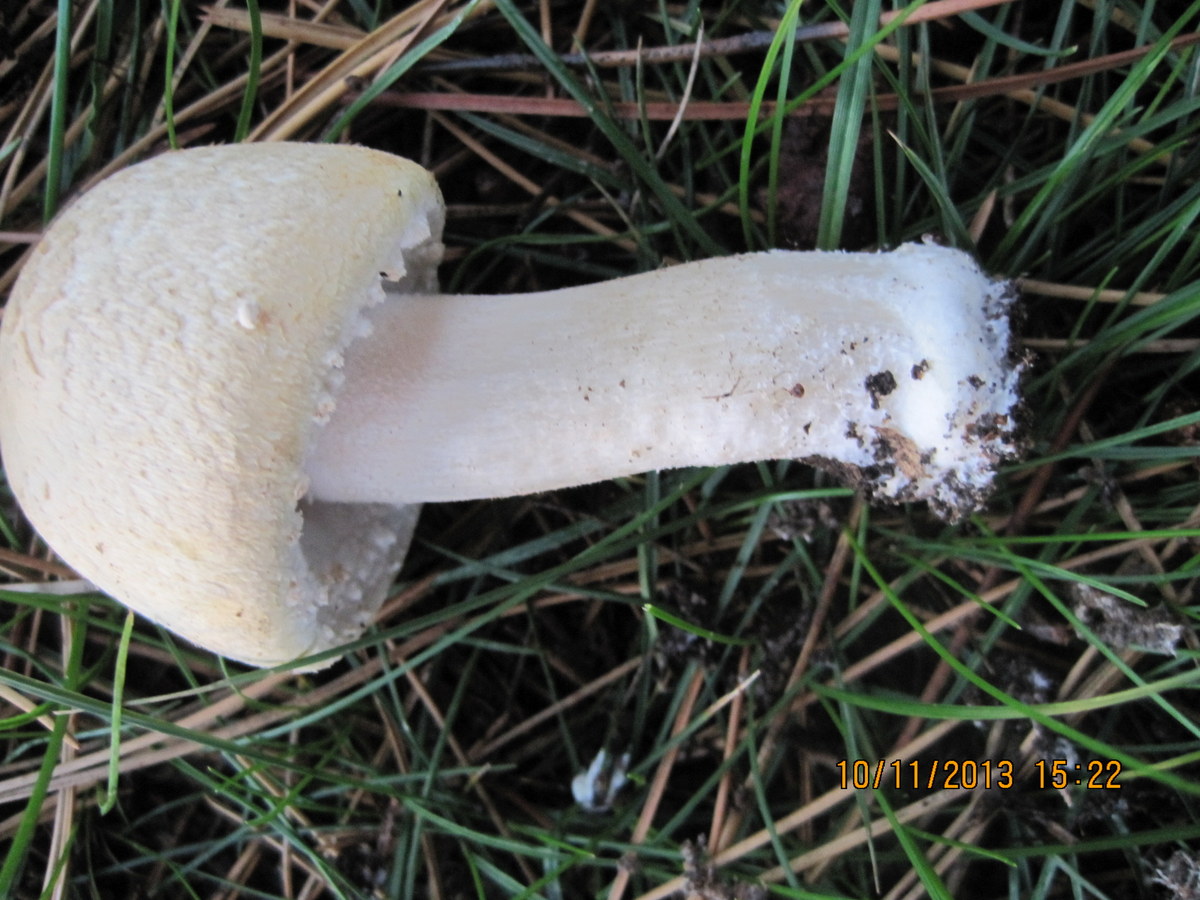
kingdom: Fungi
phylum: Basidiomycota
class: Agaricomycetes
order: Agaricales
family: Agaricaceae
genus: Agaricus
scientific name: Agaricus arvensis
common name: ager-champignon
